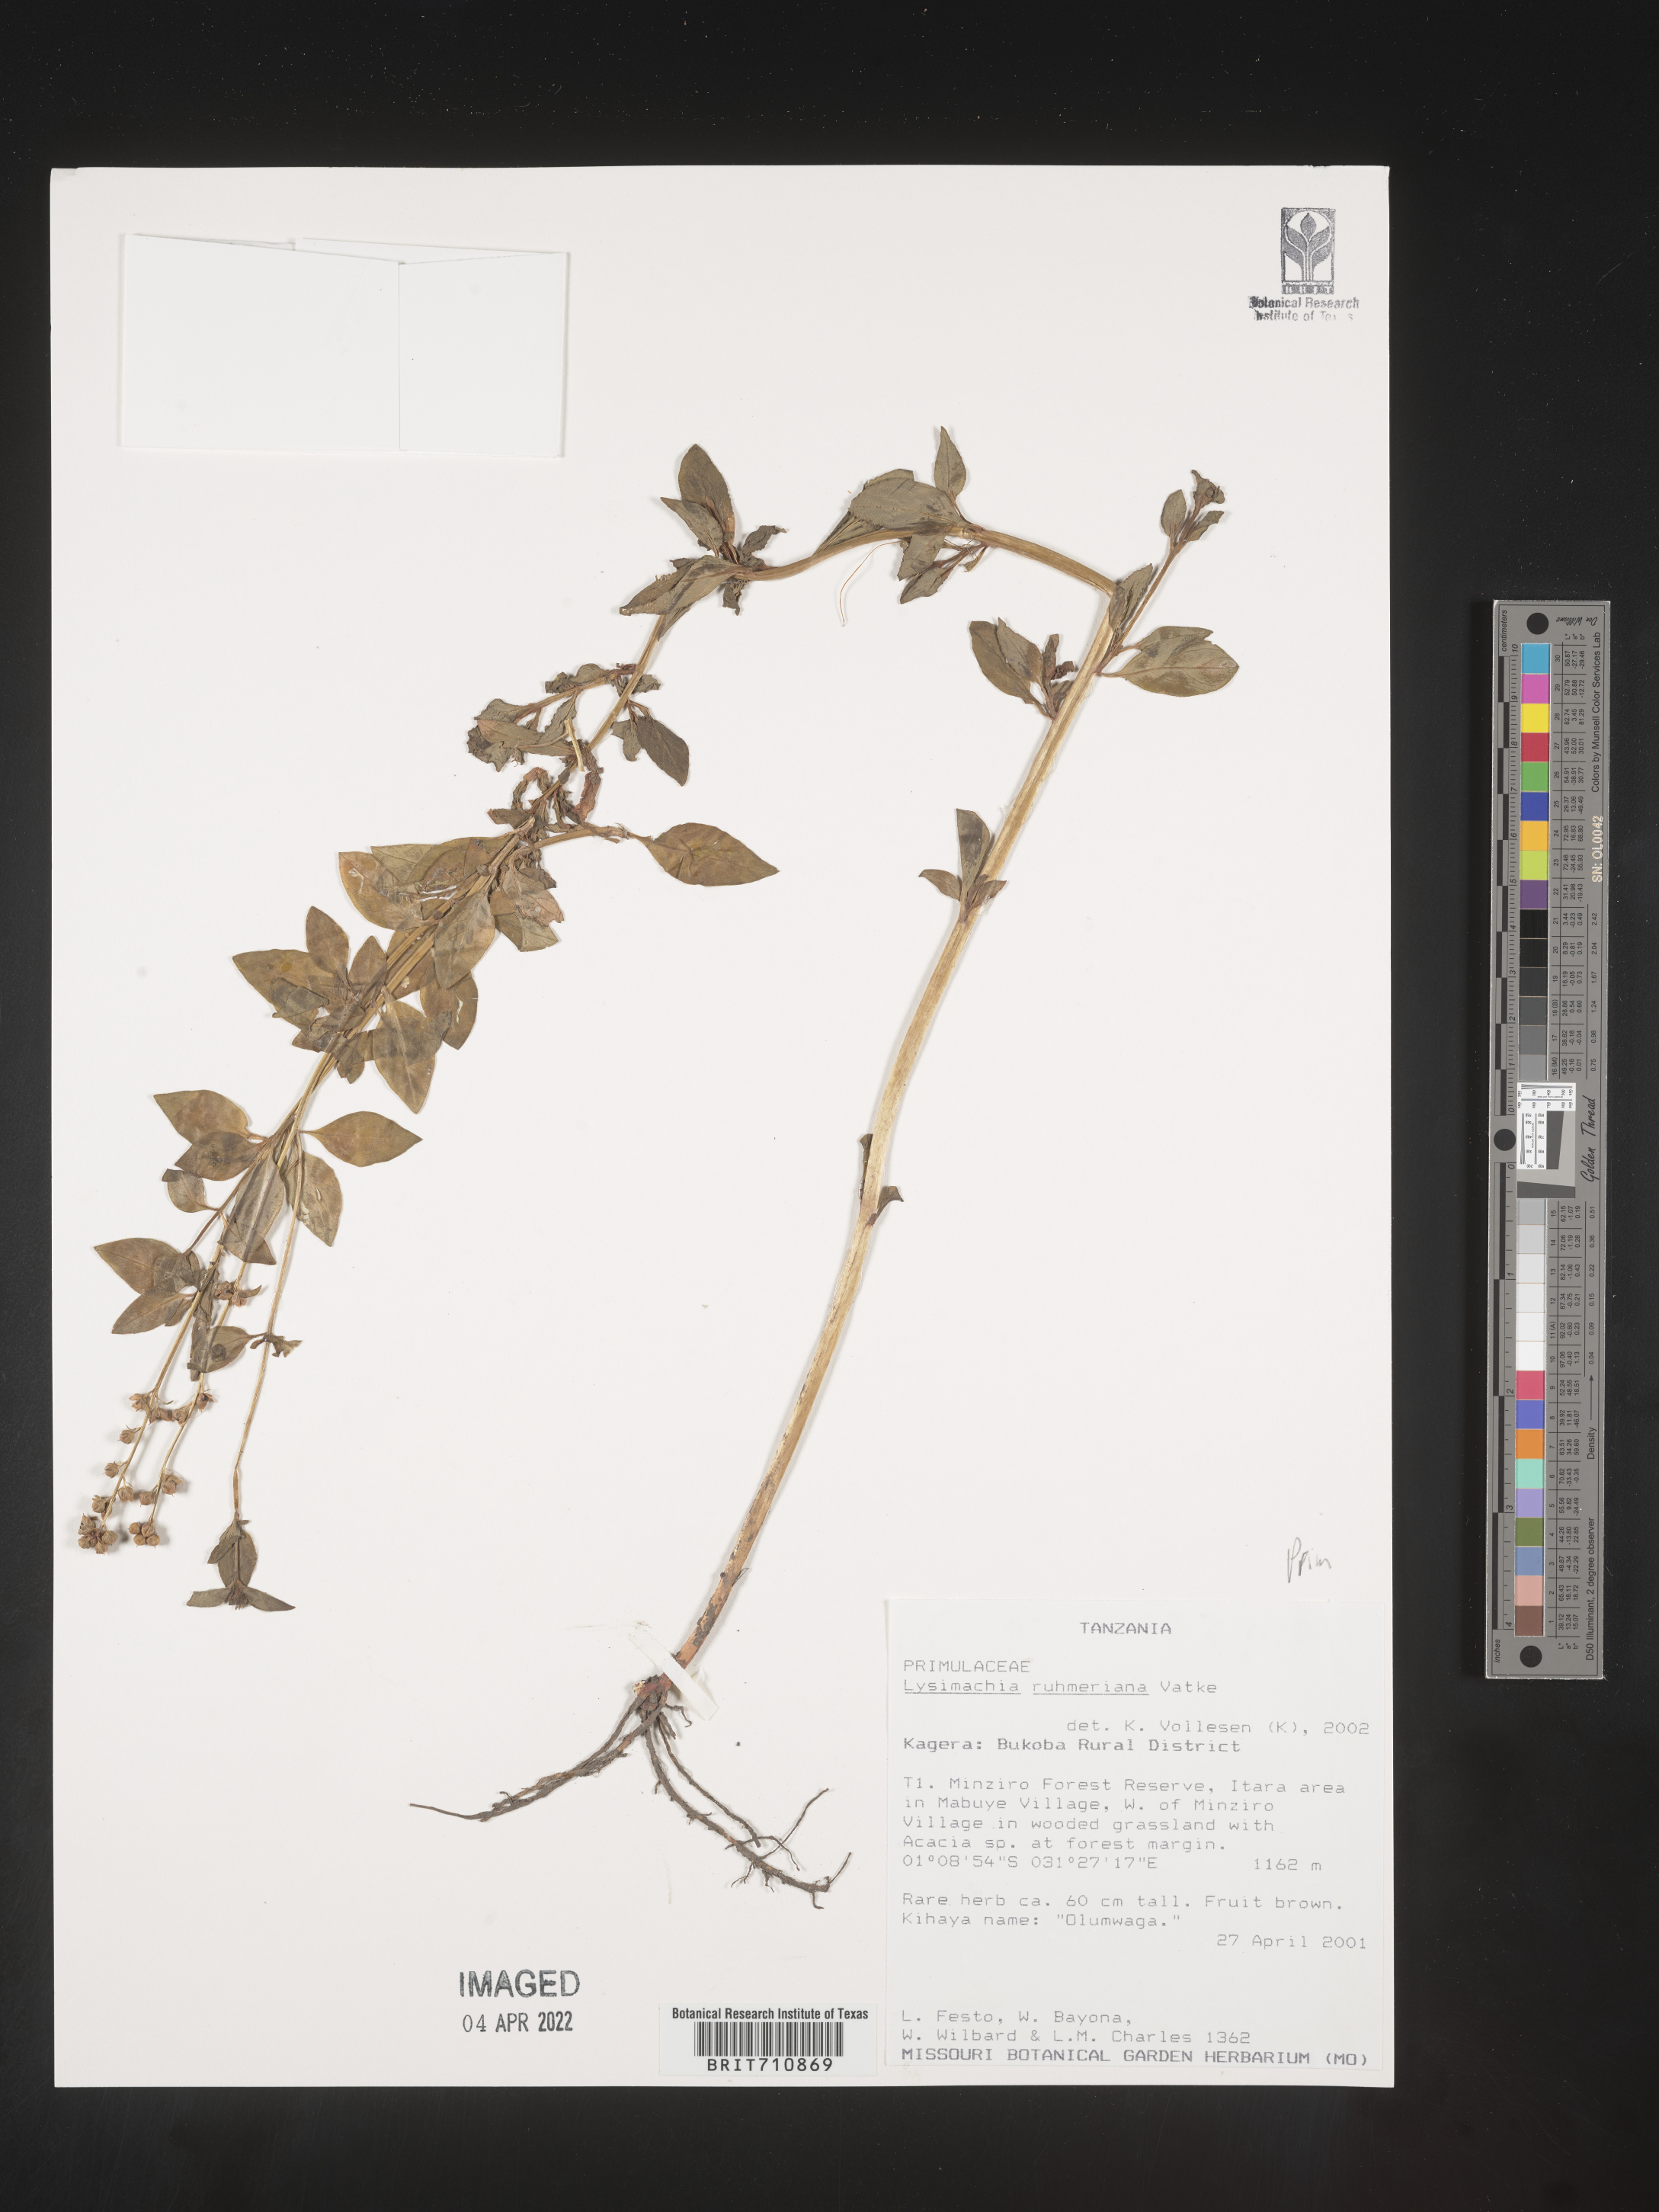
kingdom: Plantae
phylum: Tracheophyta
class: Magnoliopsida
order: Ericales
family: Primulaceae
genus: Lysimachia
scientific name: Lysimachia
